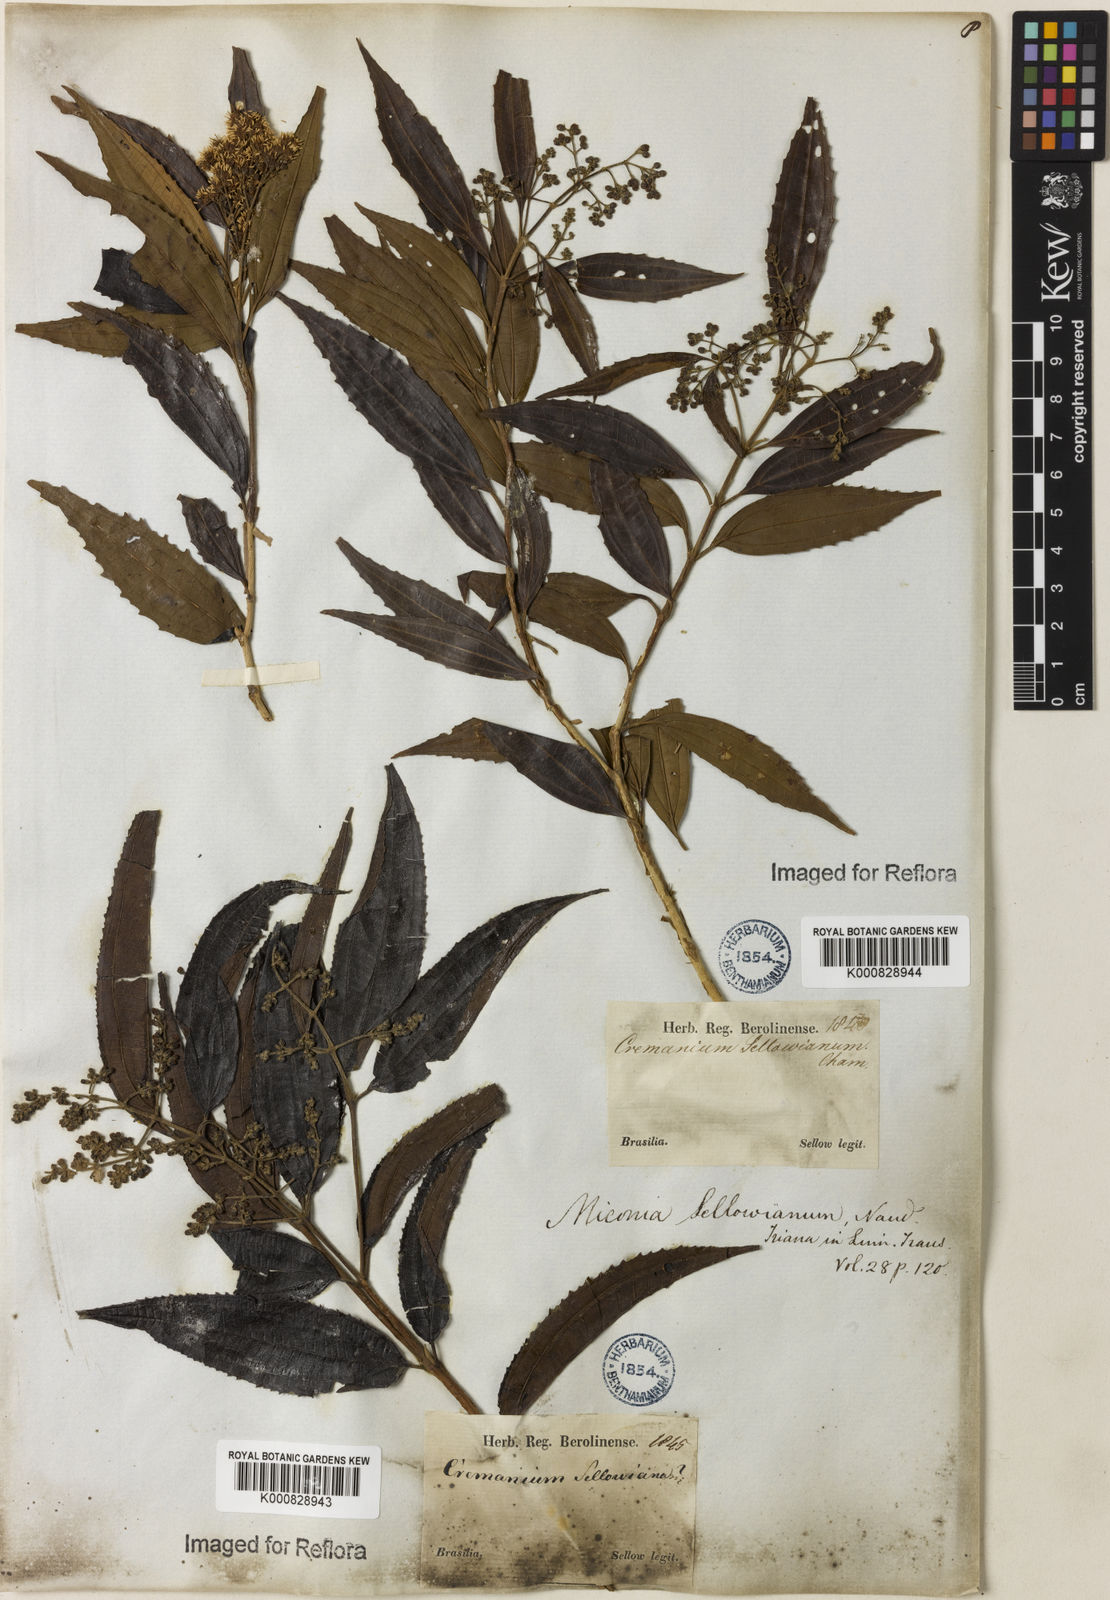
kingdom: Plantae
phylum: Tracheophyta
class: Magnoliopsida
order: Myrtales
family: Melastomataceae
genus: Miconia
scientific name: Miconia sellowiana
